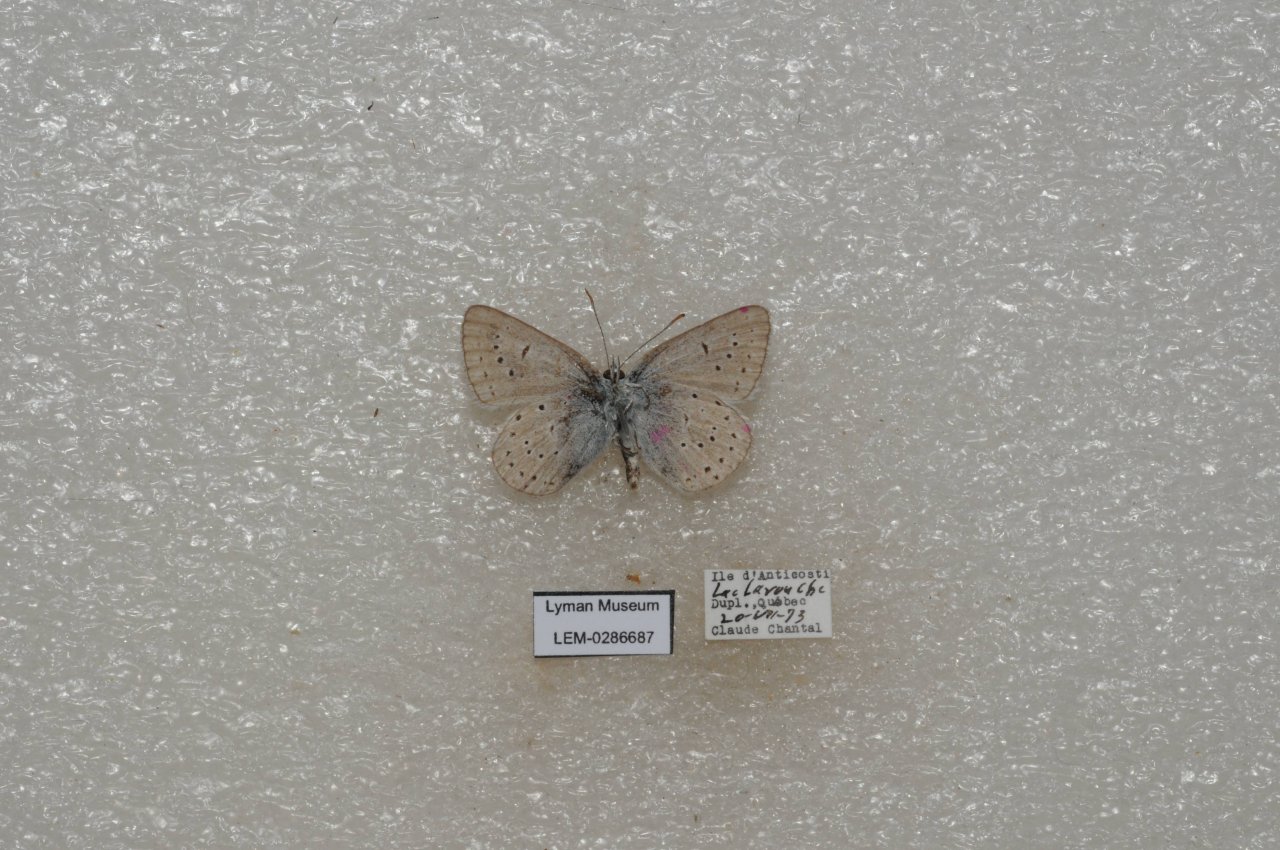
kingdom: Animalia
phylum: Arthropoda
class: Insecta
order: Lepidoptera
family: Lycaenidae
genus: Plebejus
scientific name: Plebejus saepiolus
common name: Greenish Blue
